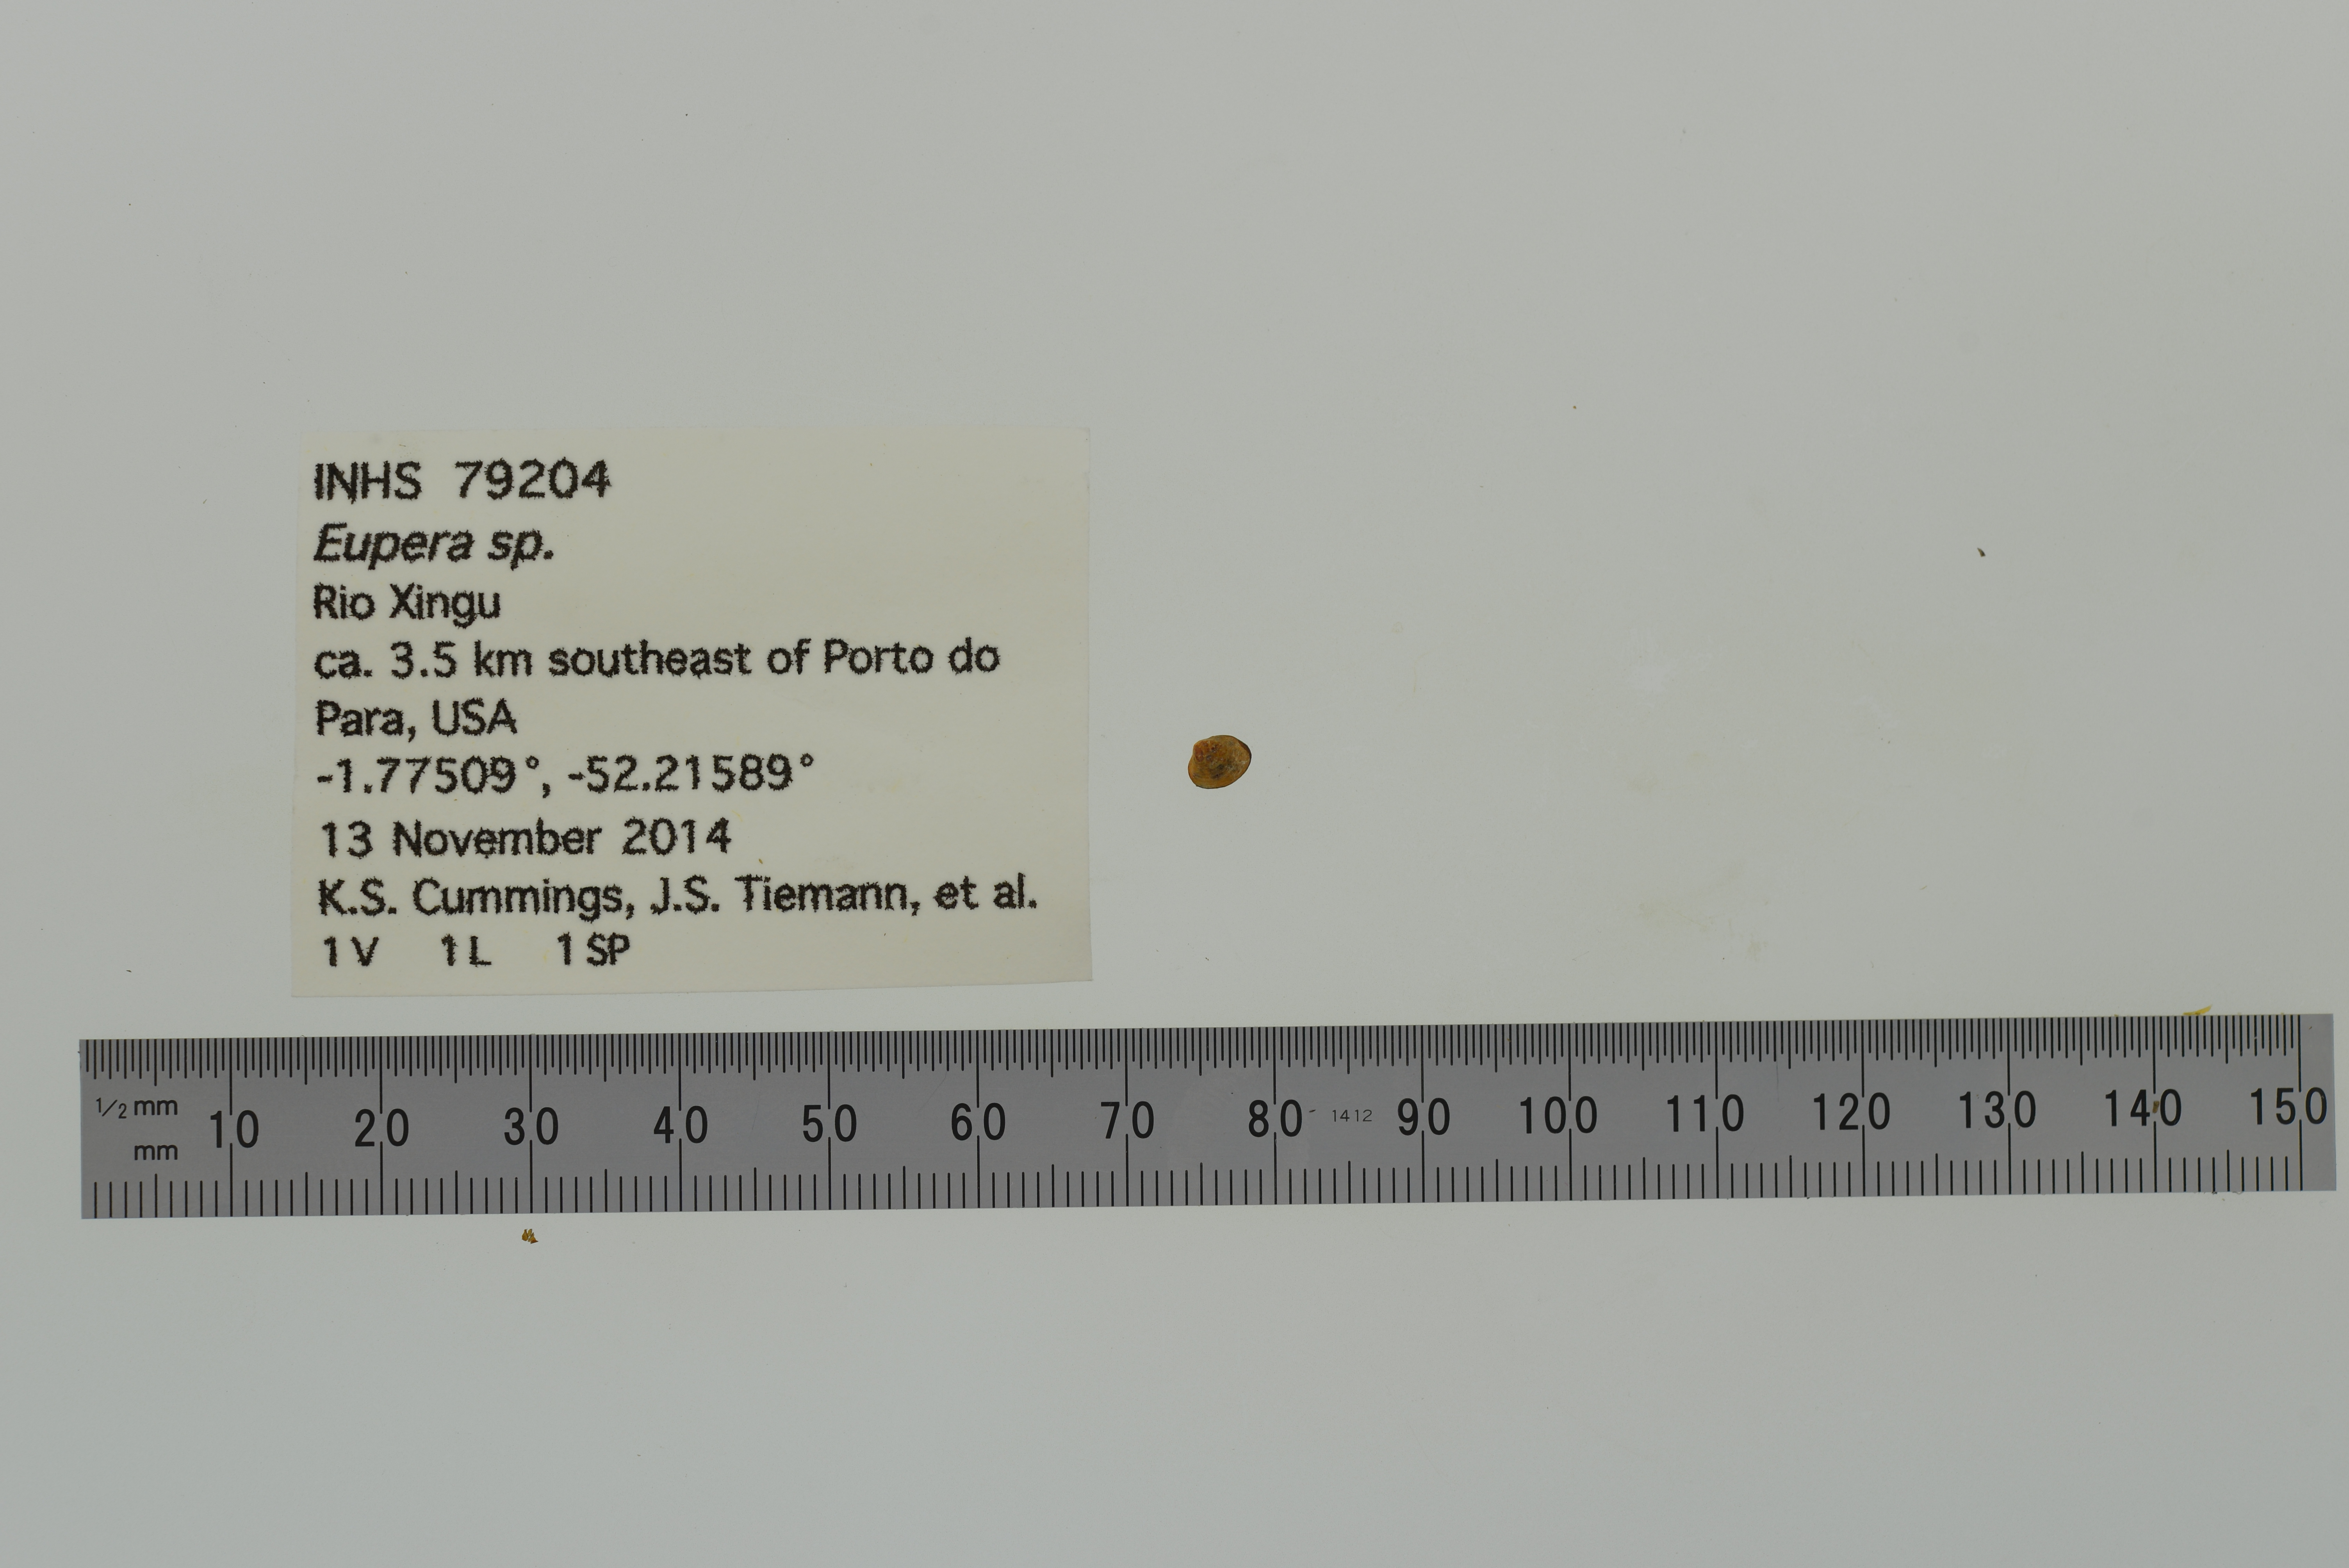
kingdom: Animalia
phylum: Mollusca
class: Bivalvia
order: Sphaeriida
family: Sphaeriidae
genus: Eupera
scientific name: Eupera
